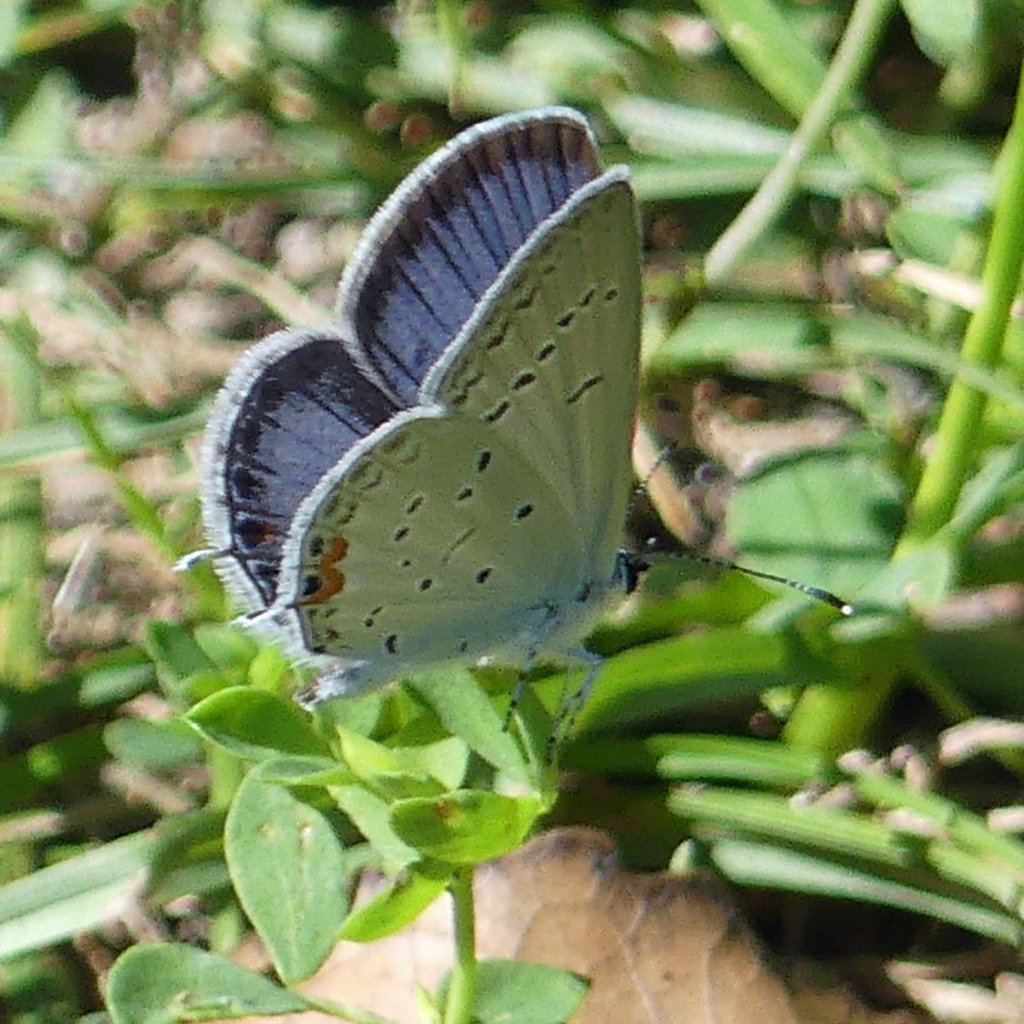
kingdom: Animalia
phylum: Arthropoda
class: Insecta
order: Lepidoptera
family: Lycaenidae
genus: Elkalyce
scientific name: Elkalyce comyntas
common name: Eastern Tailed-Blue
